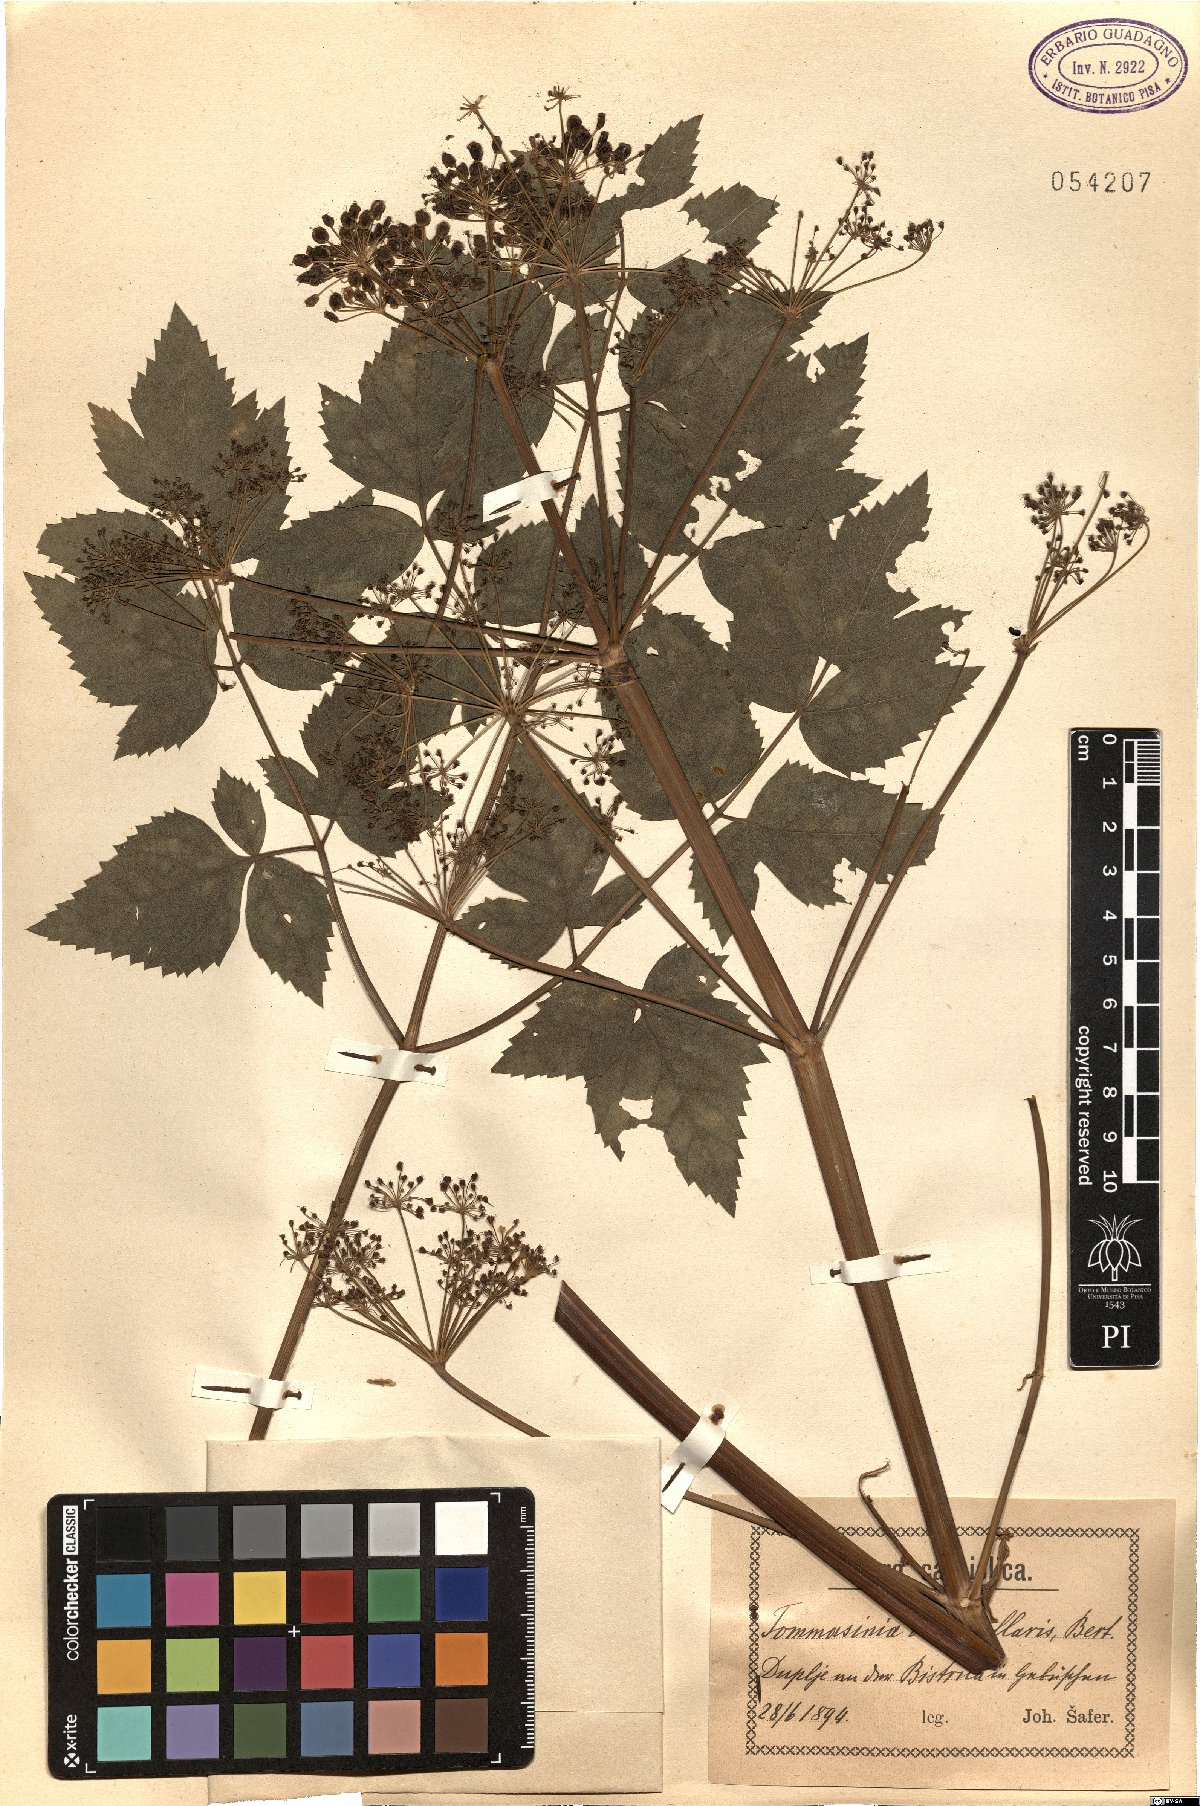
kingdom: Plantae
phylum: Tracheophyta
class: Magnoliopsida
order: Apiales
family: Apiaceae
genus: Tommasinia
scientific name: Tommasinia altissima
